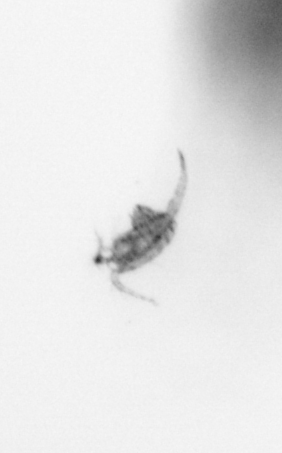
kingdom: Animalia
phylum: Arthropoda
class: Copepoda
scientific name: Copepoda
